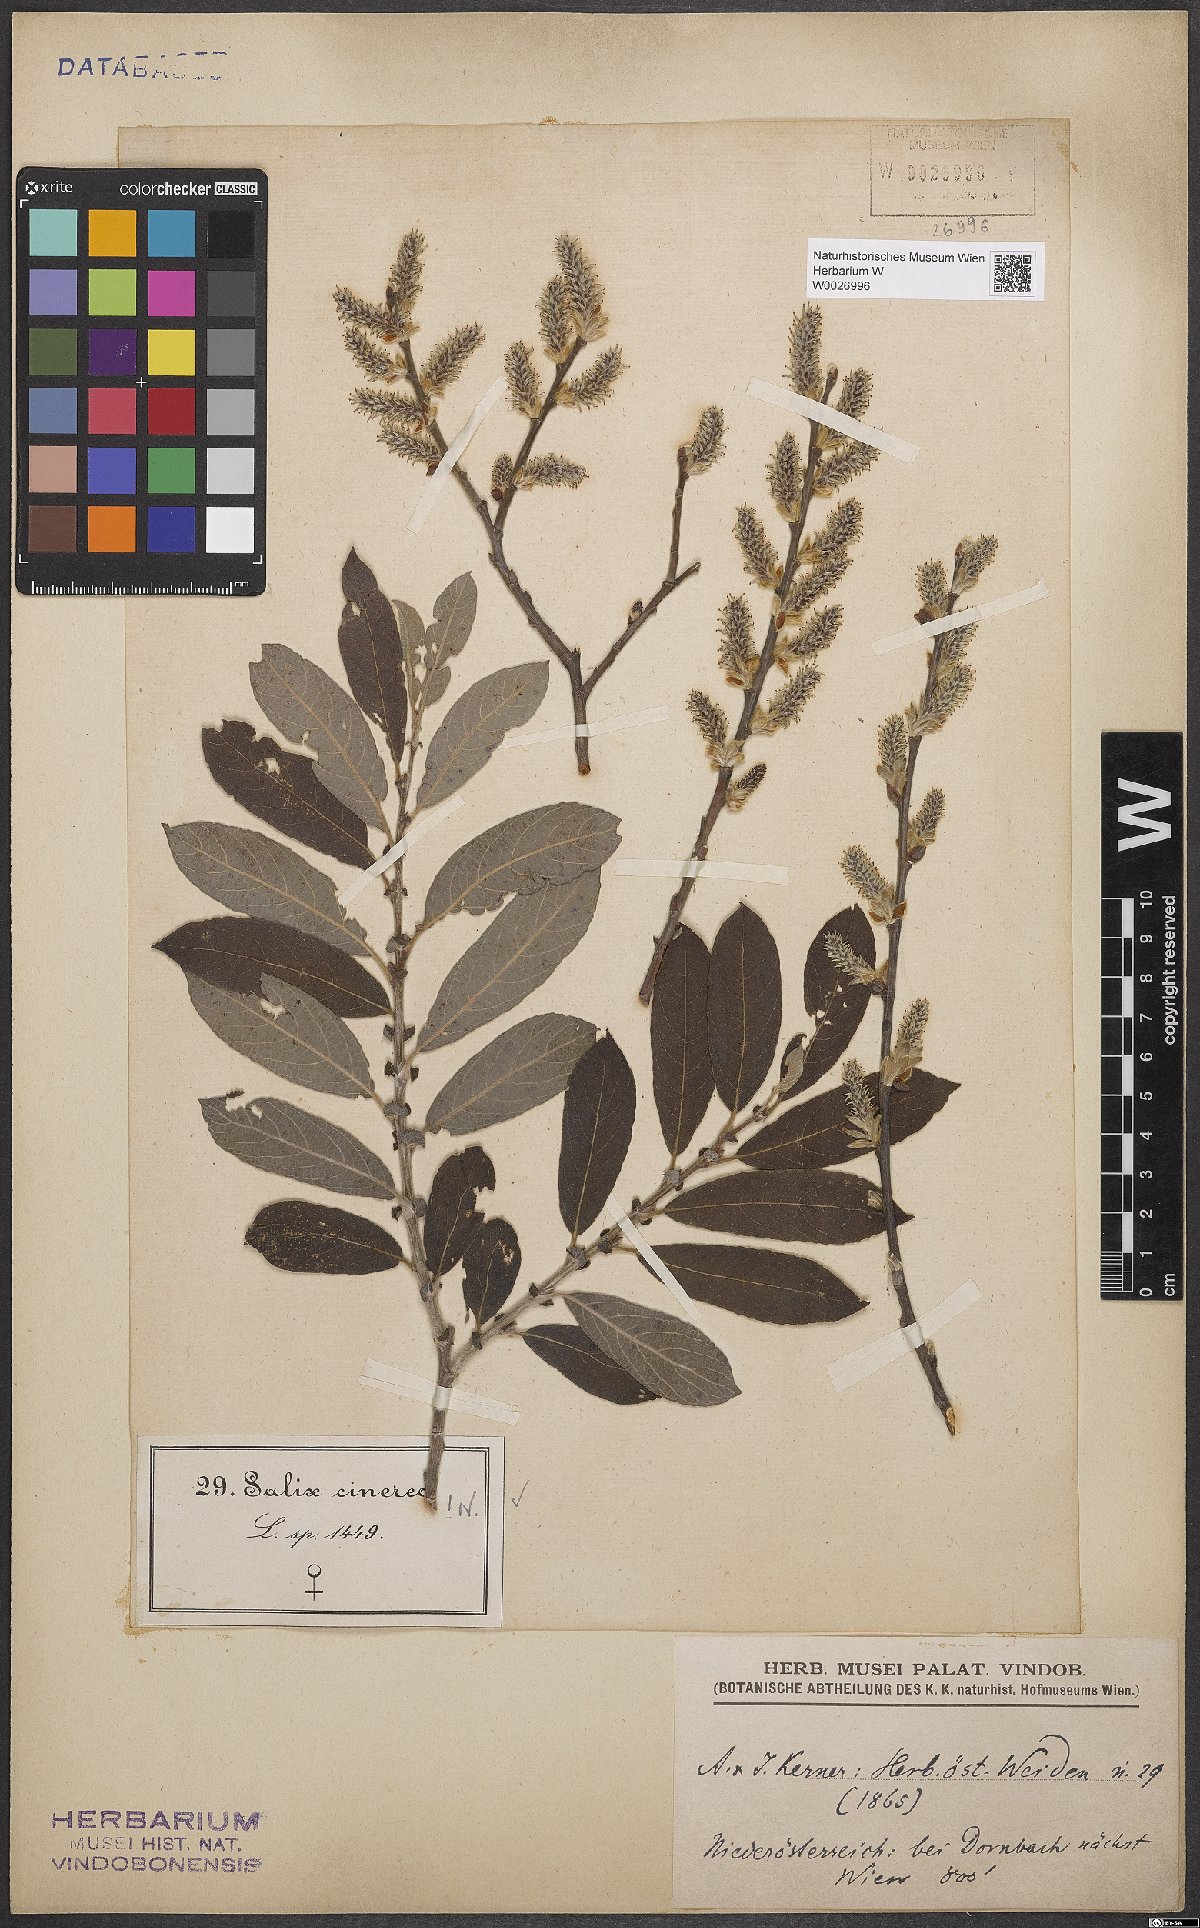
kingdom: Plantae
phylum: Tracheophyta
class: Magnoliopsida
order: Malpighiales
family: Salicaceae
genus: Salix
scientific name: Salix cinerea
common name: Common sallow
